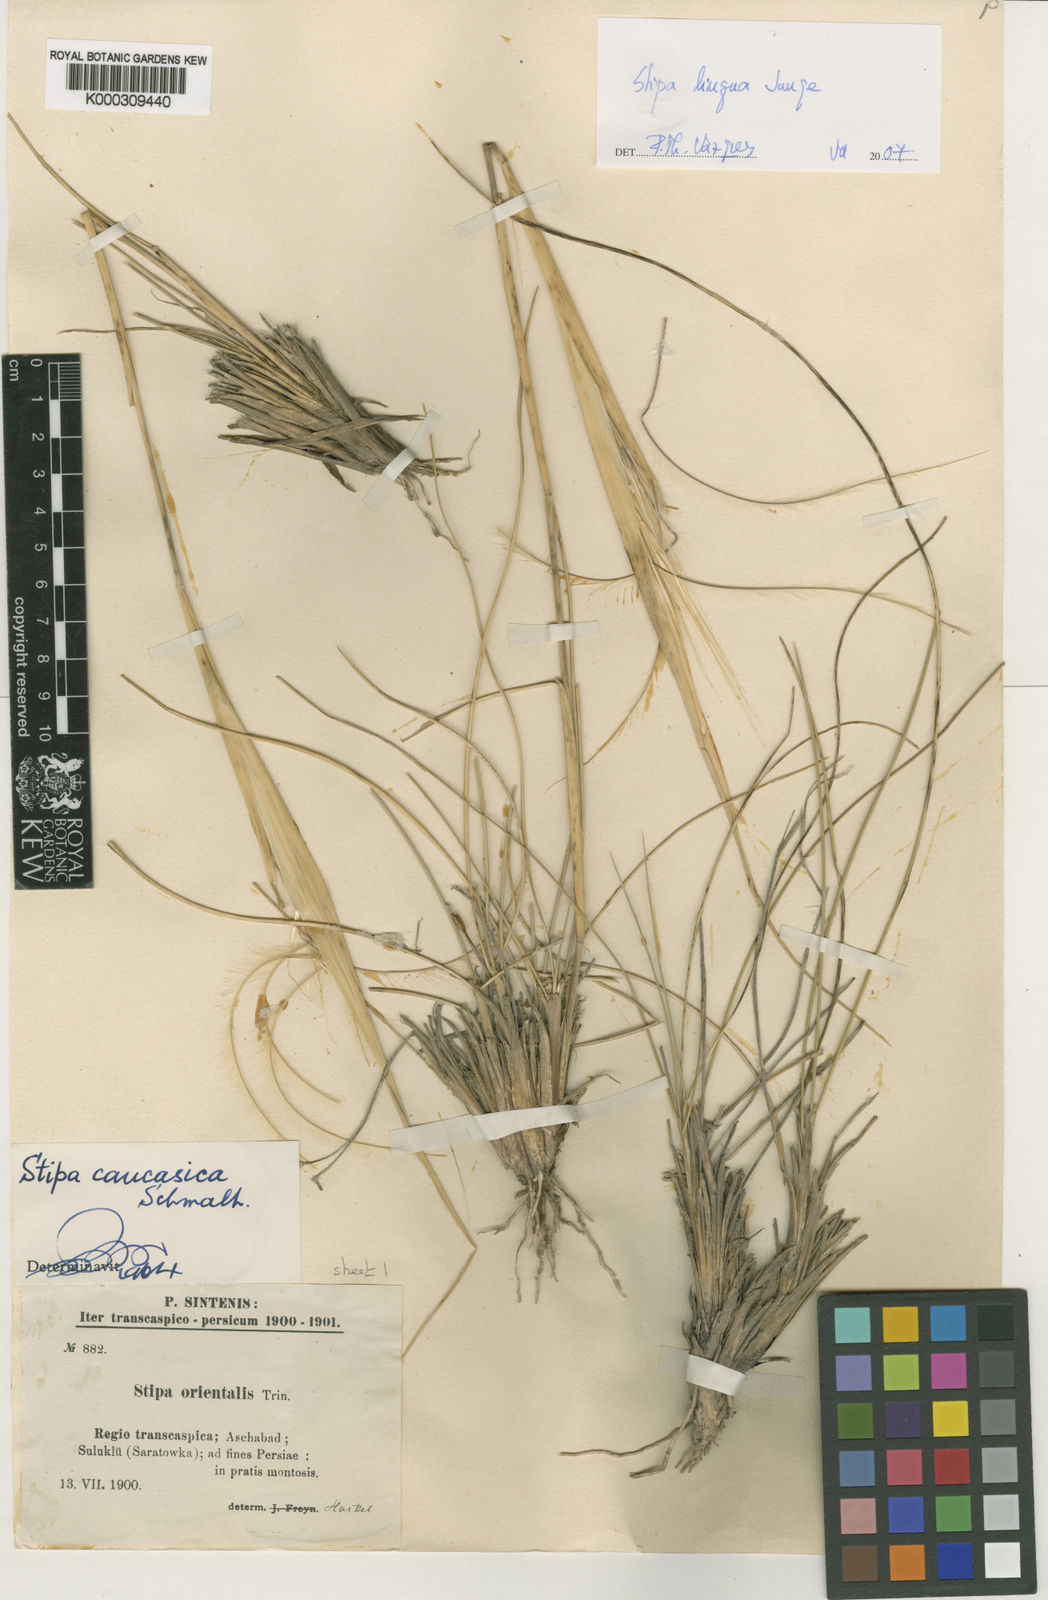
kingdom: Plantae
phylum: Tracheophyta
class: Liliopsida
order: Poales
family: Poaceae
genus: Stipa
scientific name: Stipa caucasica
